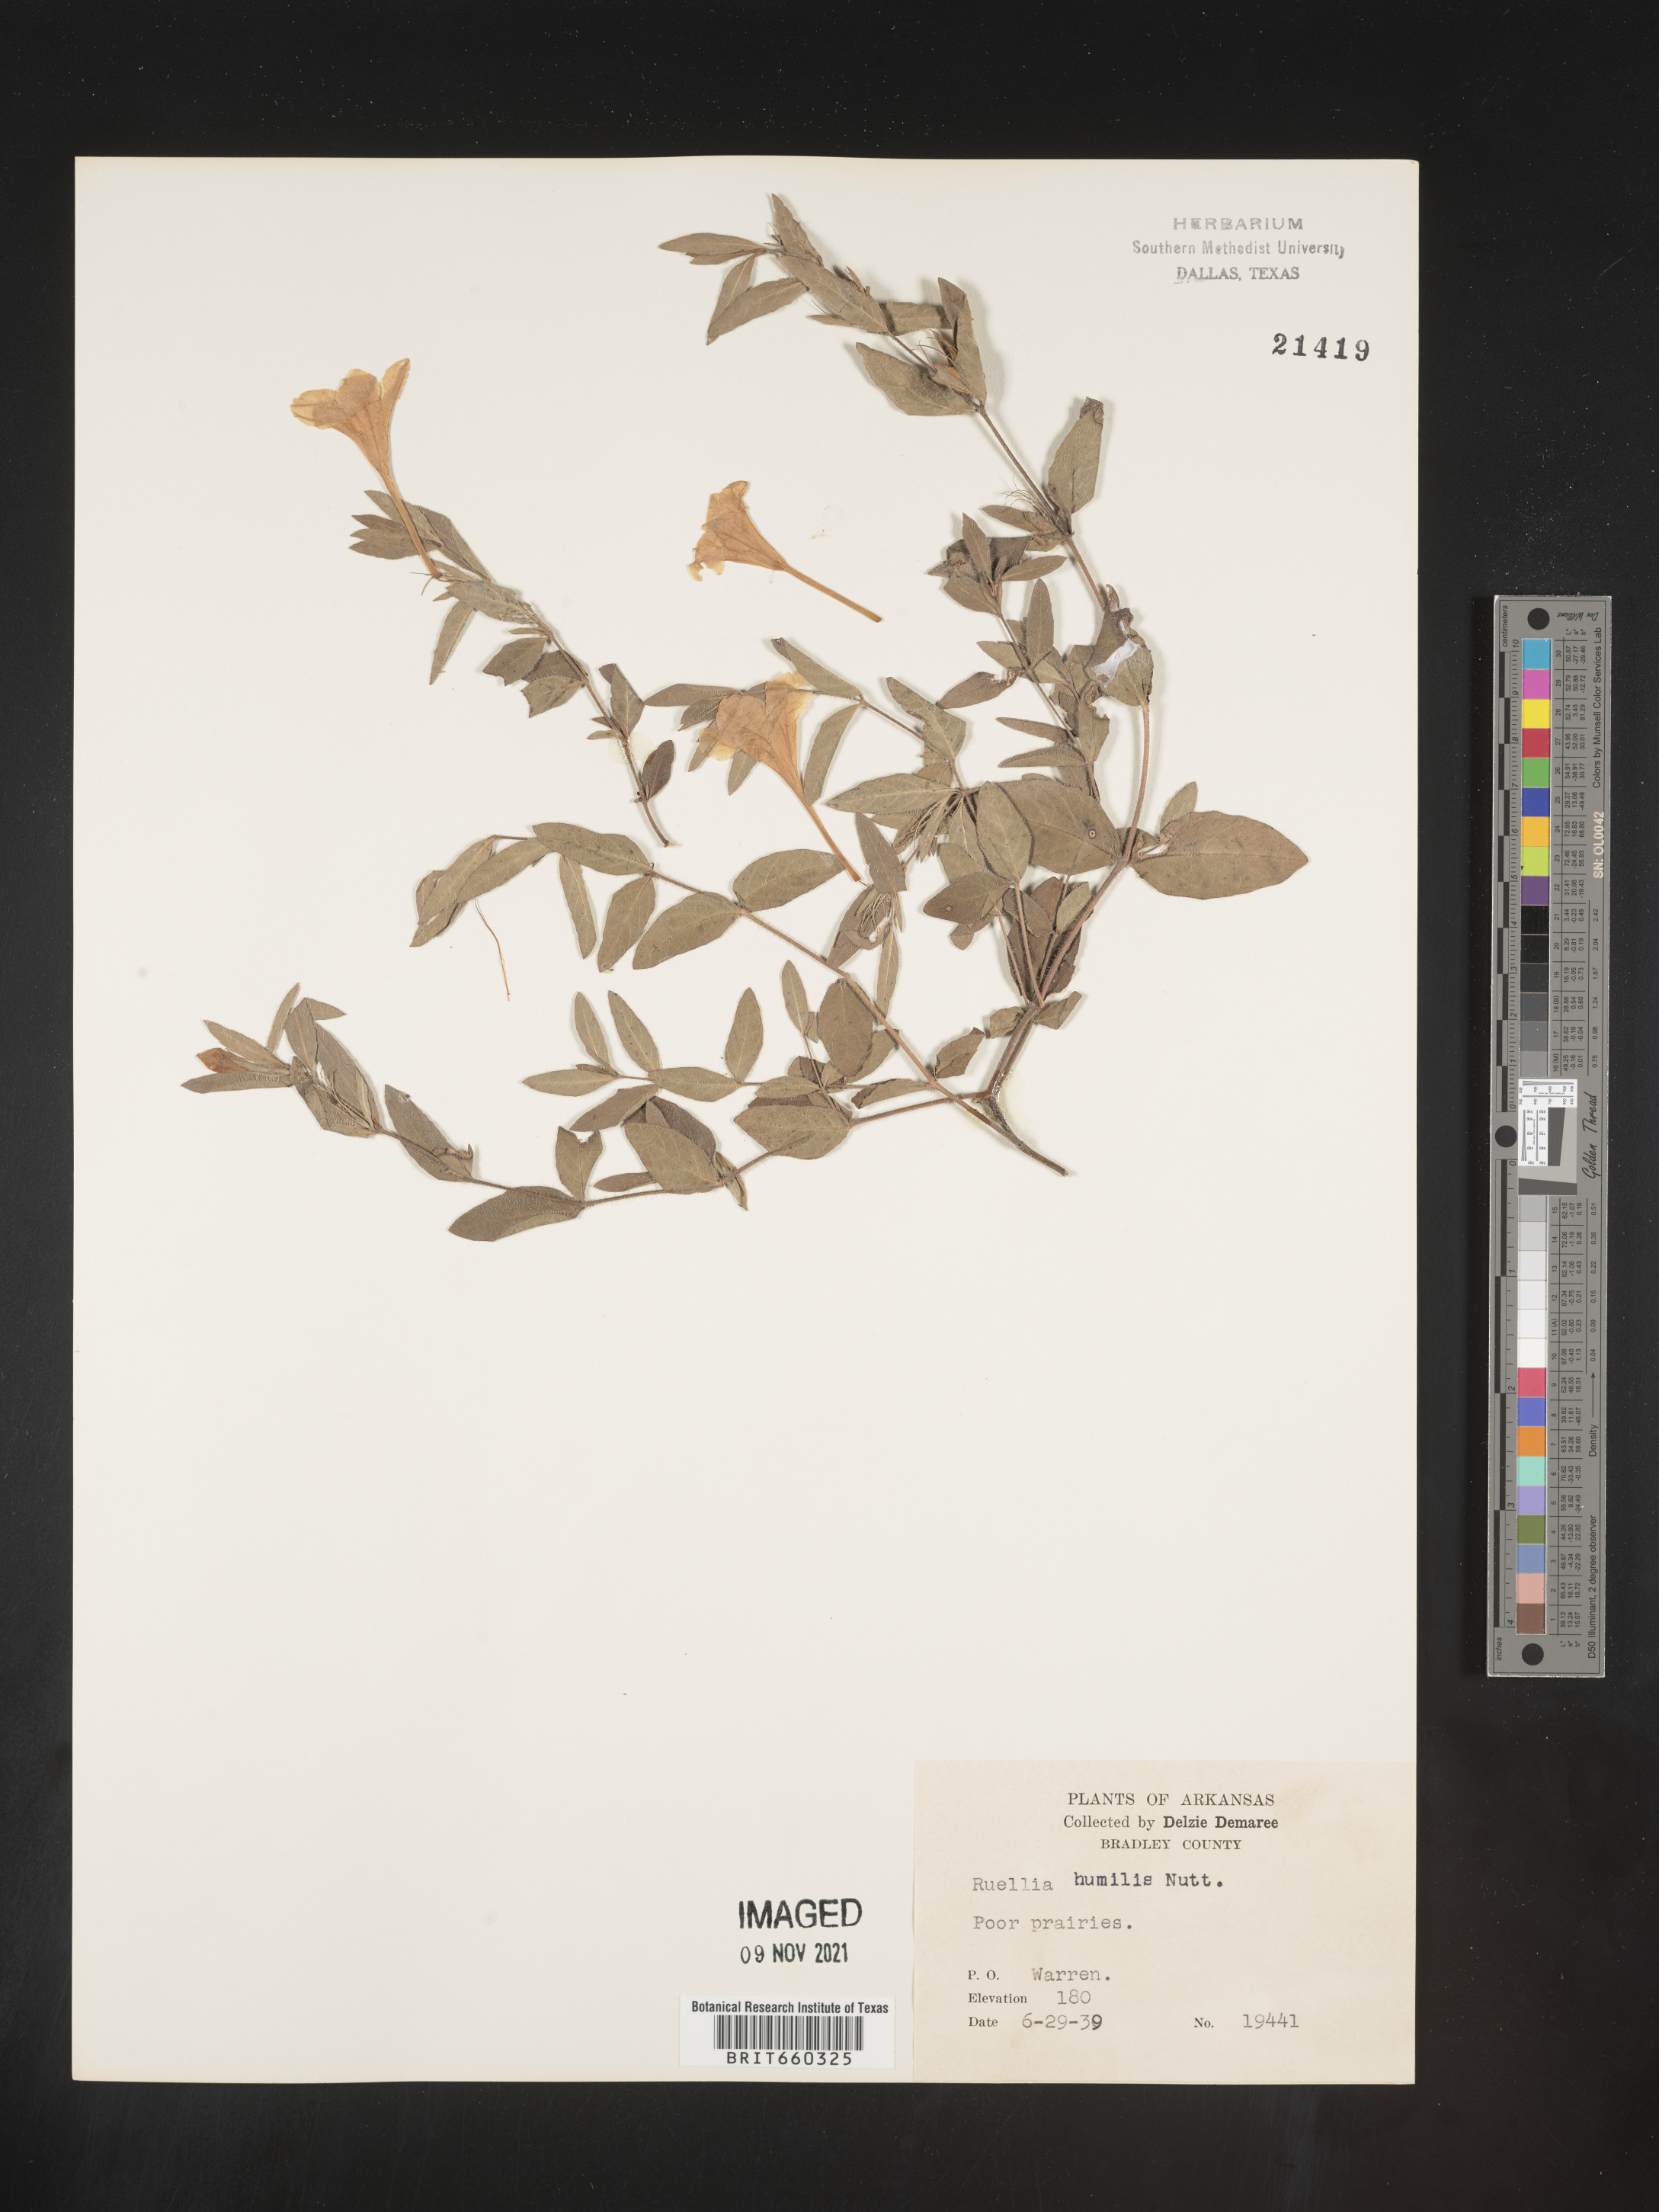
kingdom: Plantae
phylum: Tracheophyta
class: Magnoliopsida
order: Lamiales
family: Acanthaceae
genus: Ruellia
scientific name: Ruellia humilis
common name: Fringe-leaf ruellia
